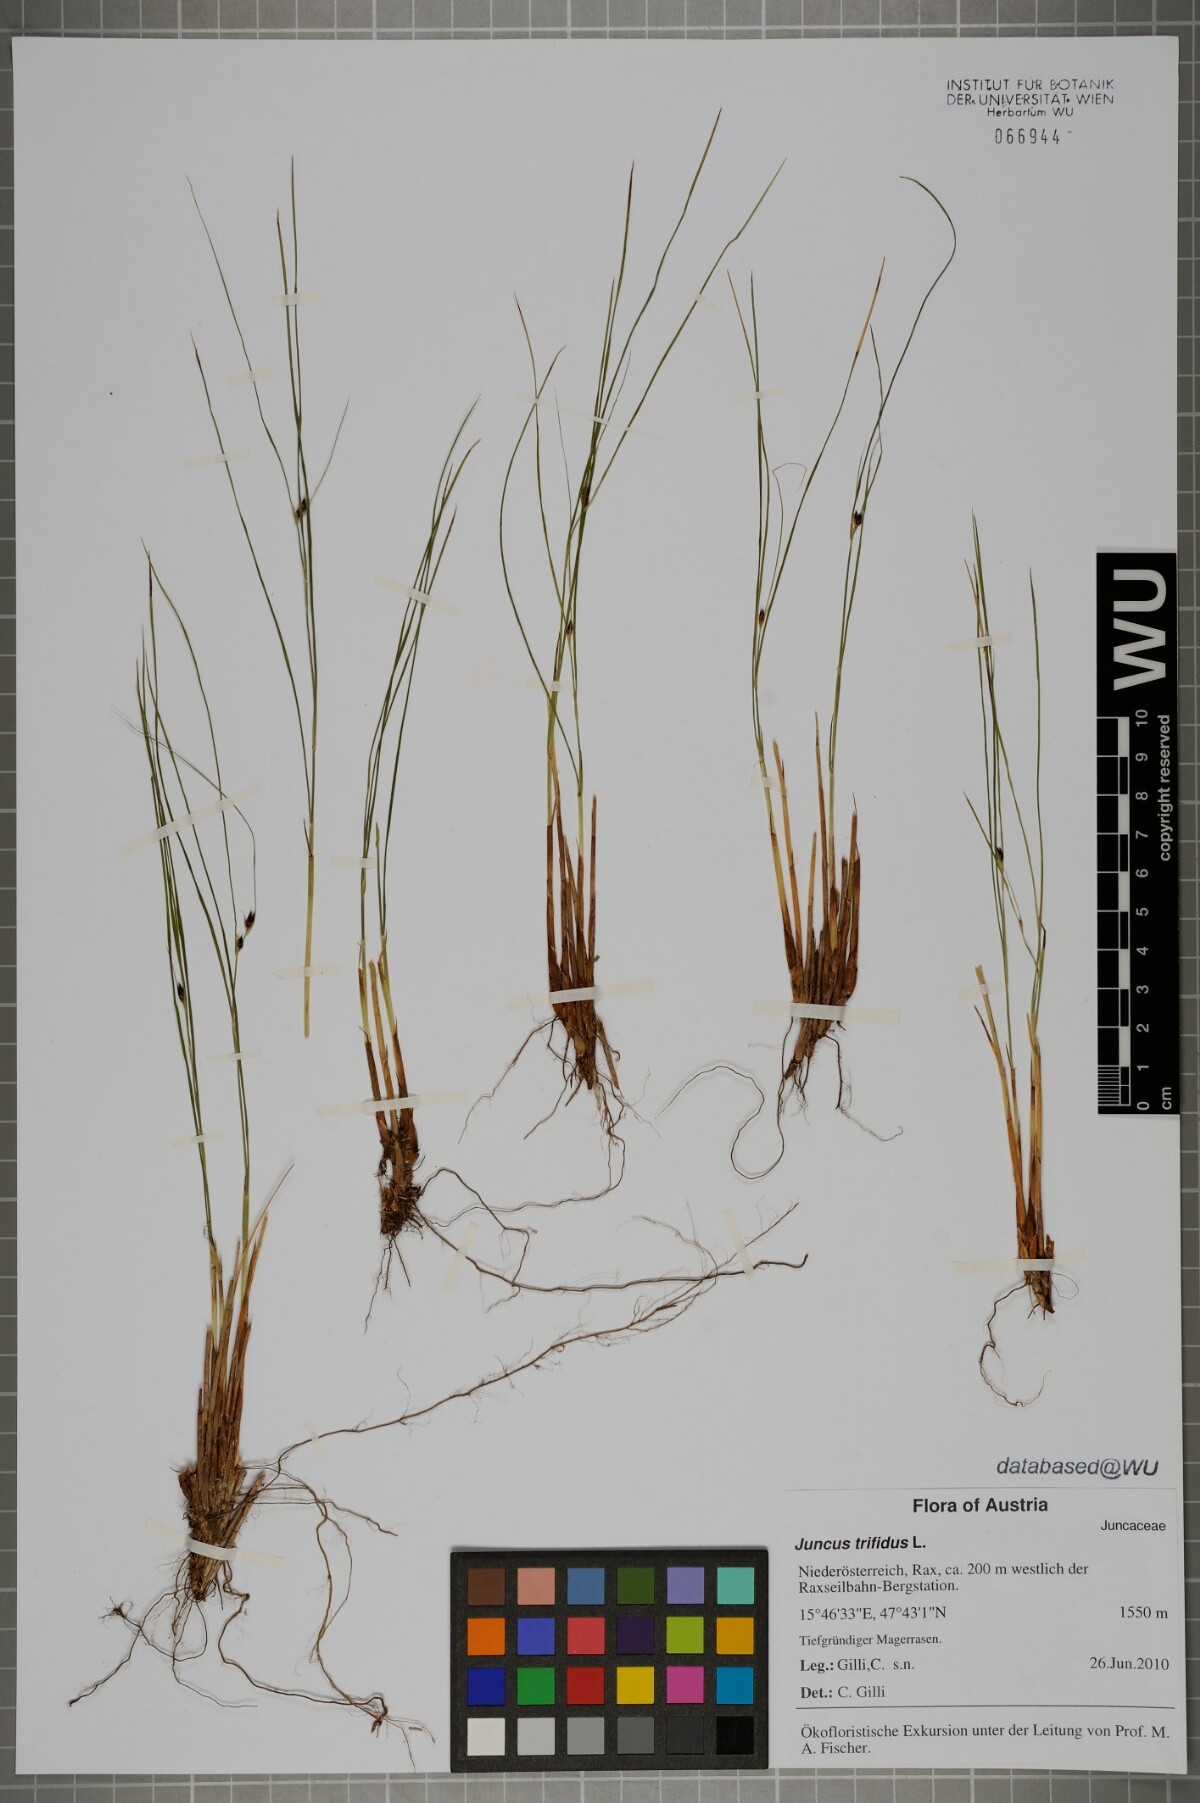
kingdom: Plantae
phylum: Tracheophyta
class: Liliopsida
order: Poales
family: Juncaceae
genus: Oreojuncus
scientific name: Oreojuncus trifidus
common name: Highland rush
